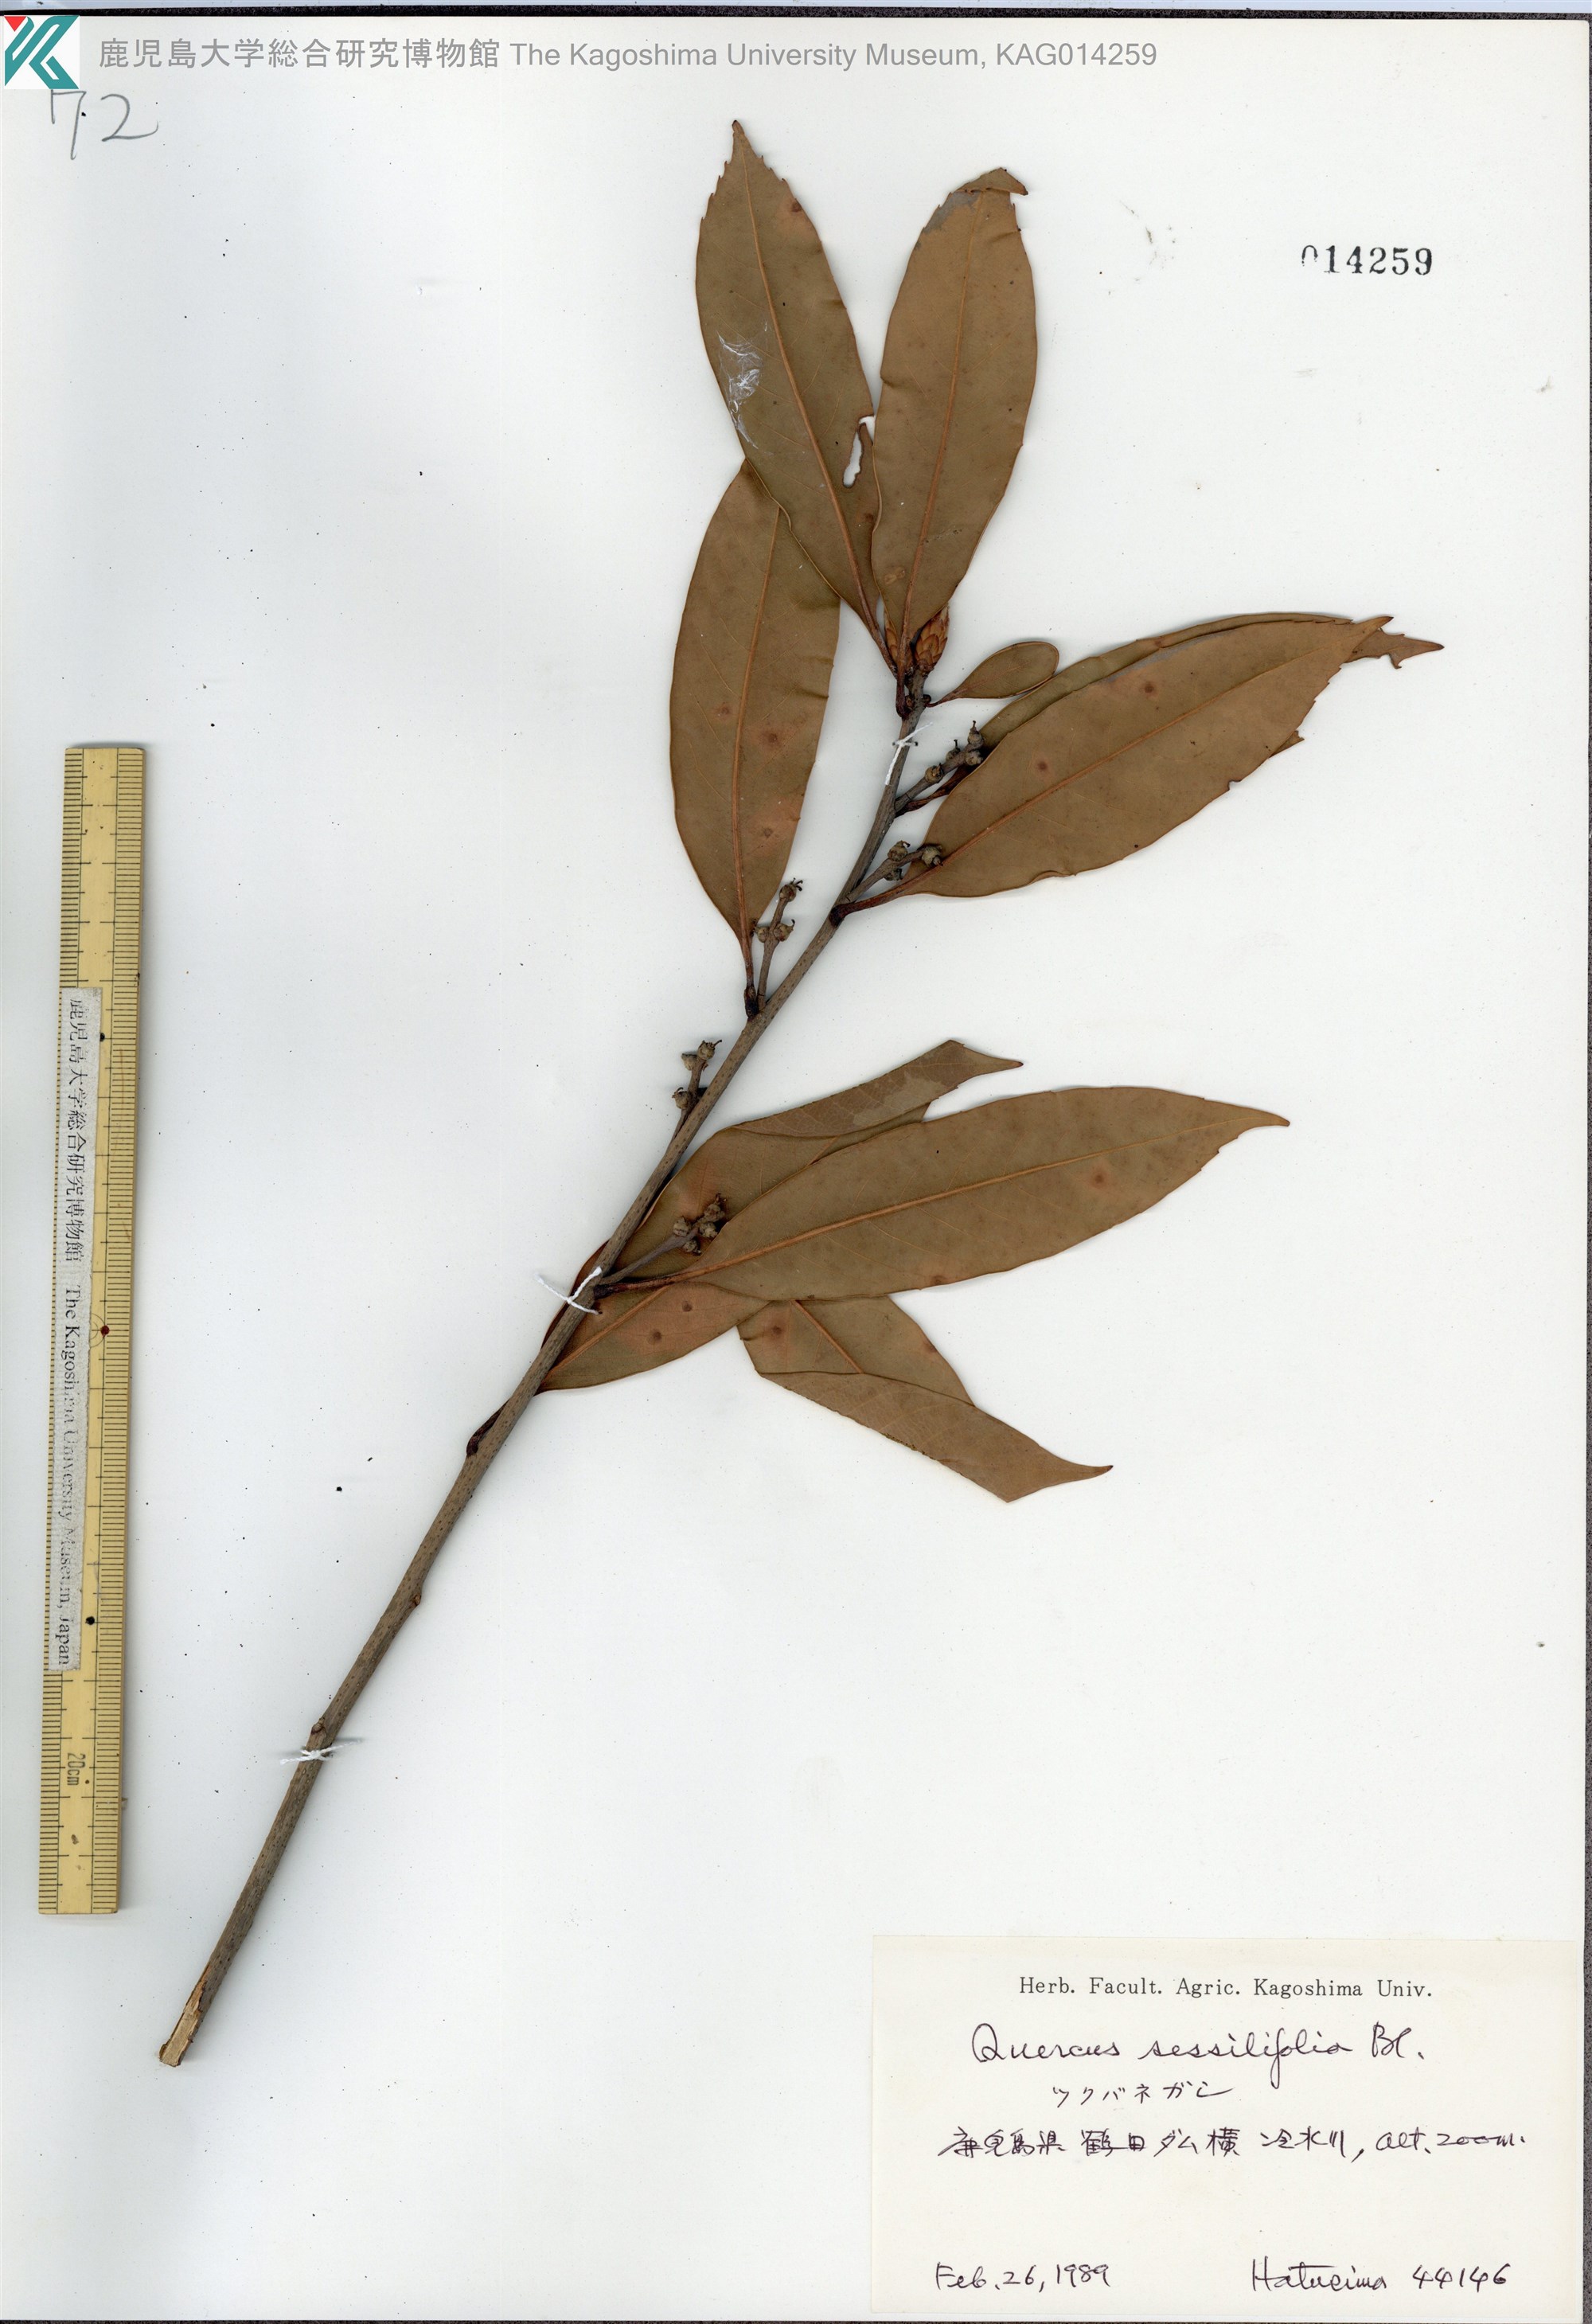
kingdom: Plantae
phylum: Tracheophyta
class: Magnoliopsida
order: Fagales
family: Fagaceae
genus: Quercus
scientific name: Quercus sessilifolia
